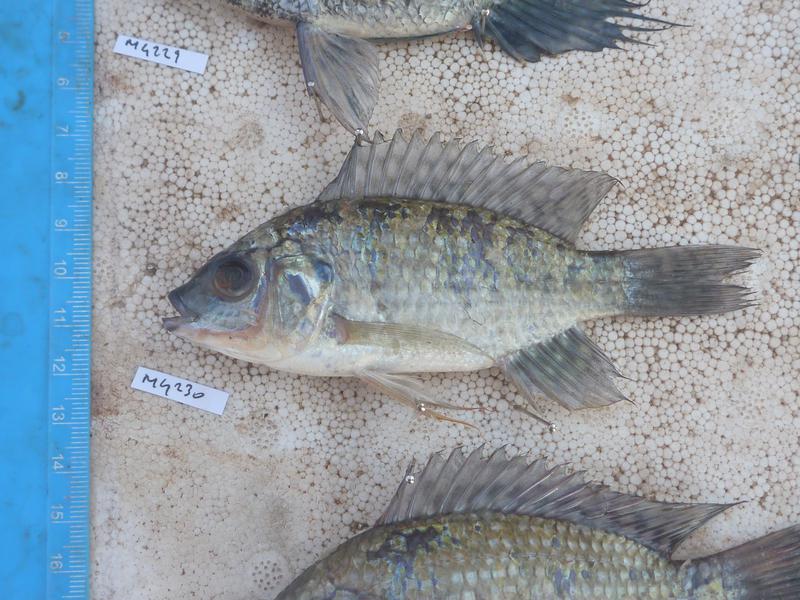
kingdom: Animalia
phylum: Chordata
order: Perciformes
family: Cichlidae
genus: Oreochromis
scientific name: Oreochromis leucostictus
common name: Blue spotted tilapia
